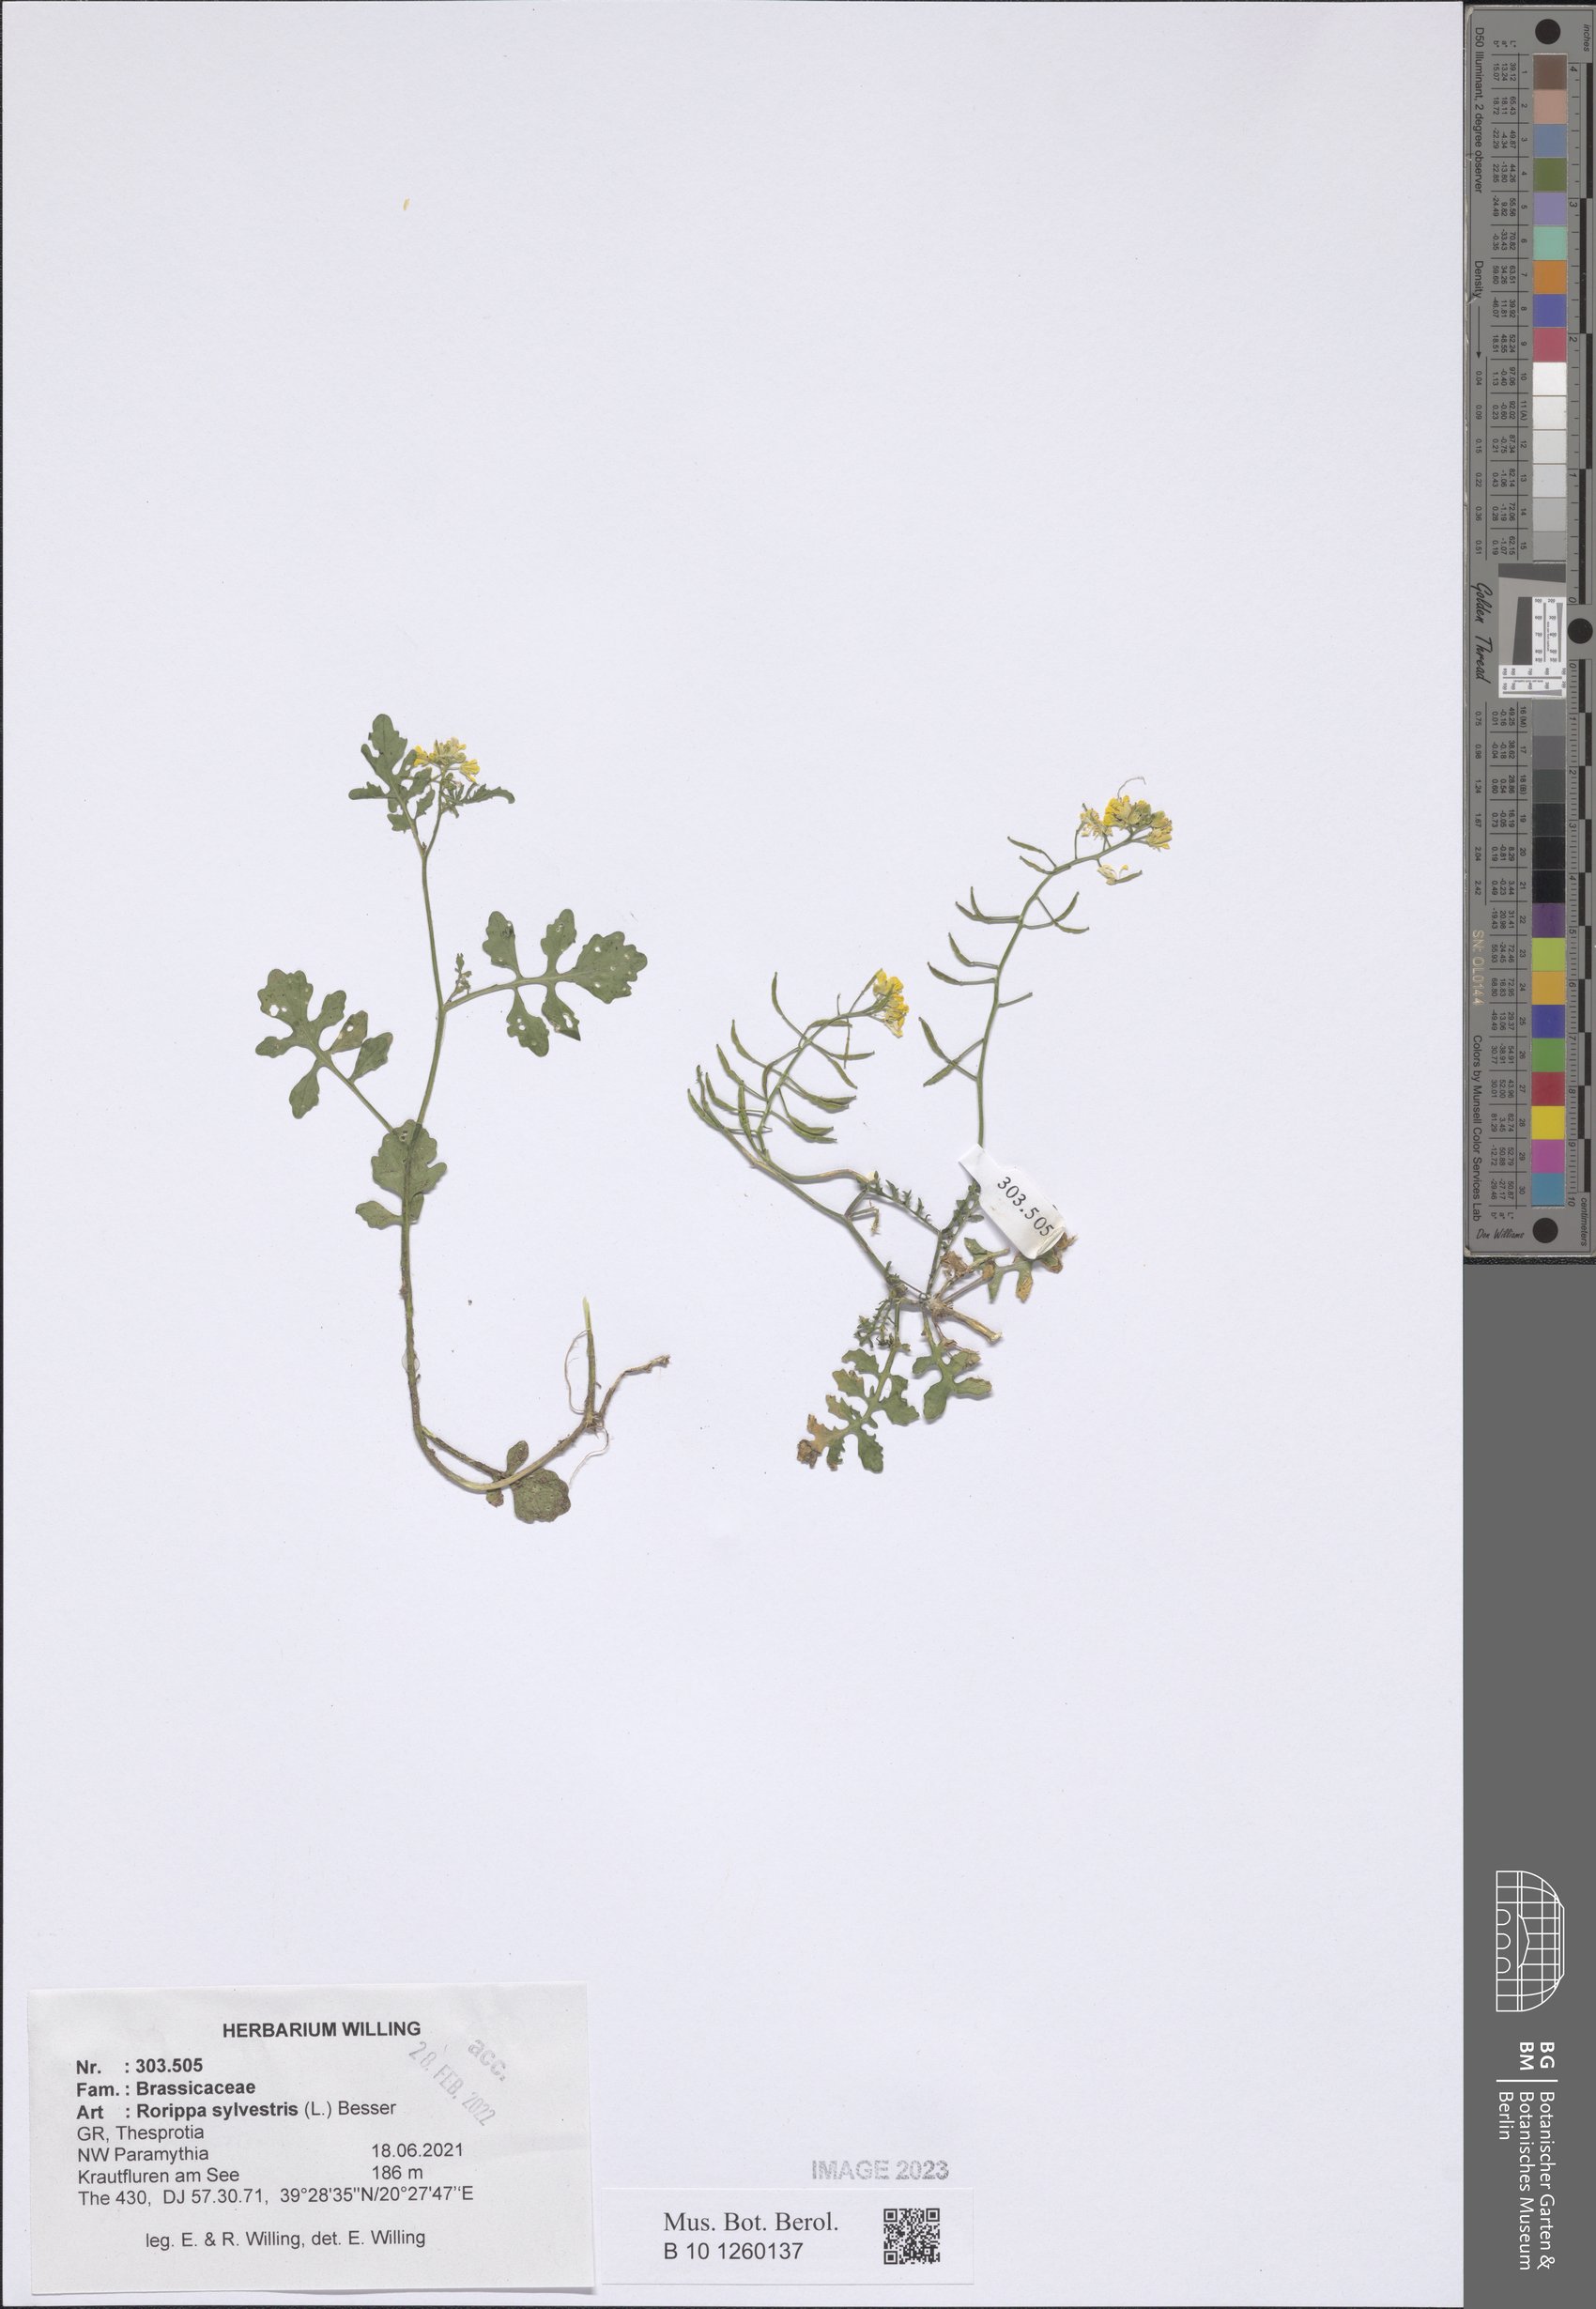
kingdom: Plantae
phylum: Tracheophyta
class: Magnoliopsida
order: Brassicales
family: Brassicaceae
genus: Rorippa
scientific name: Rorippa sylvestris
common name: Creeping yellowcress
